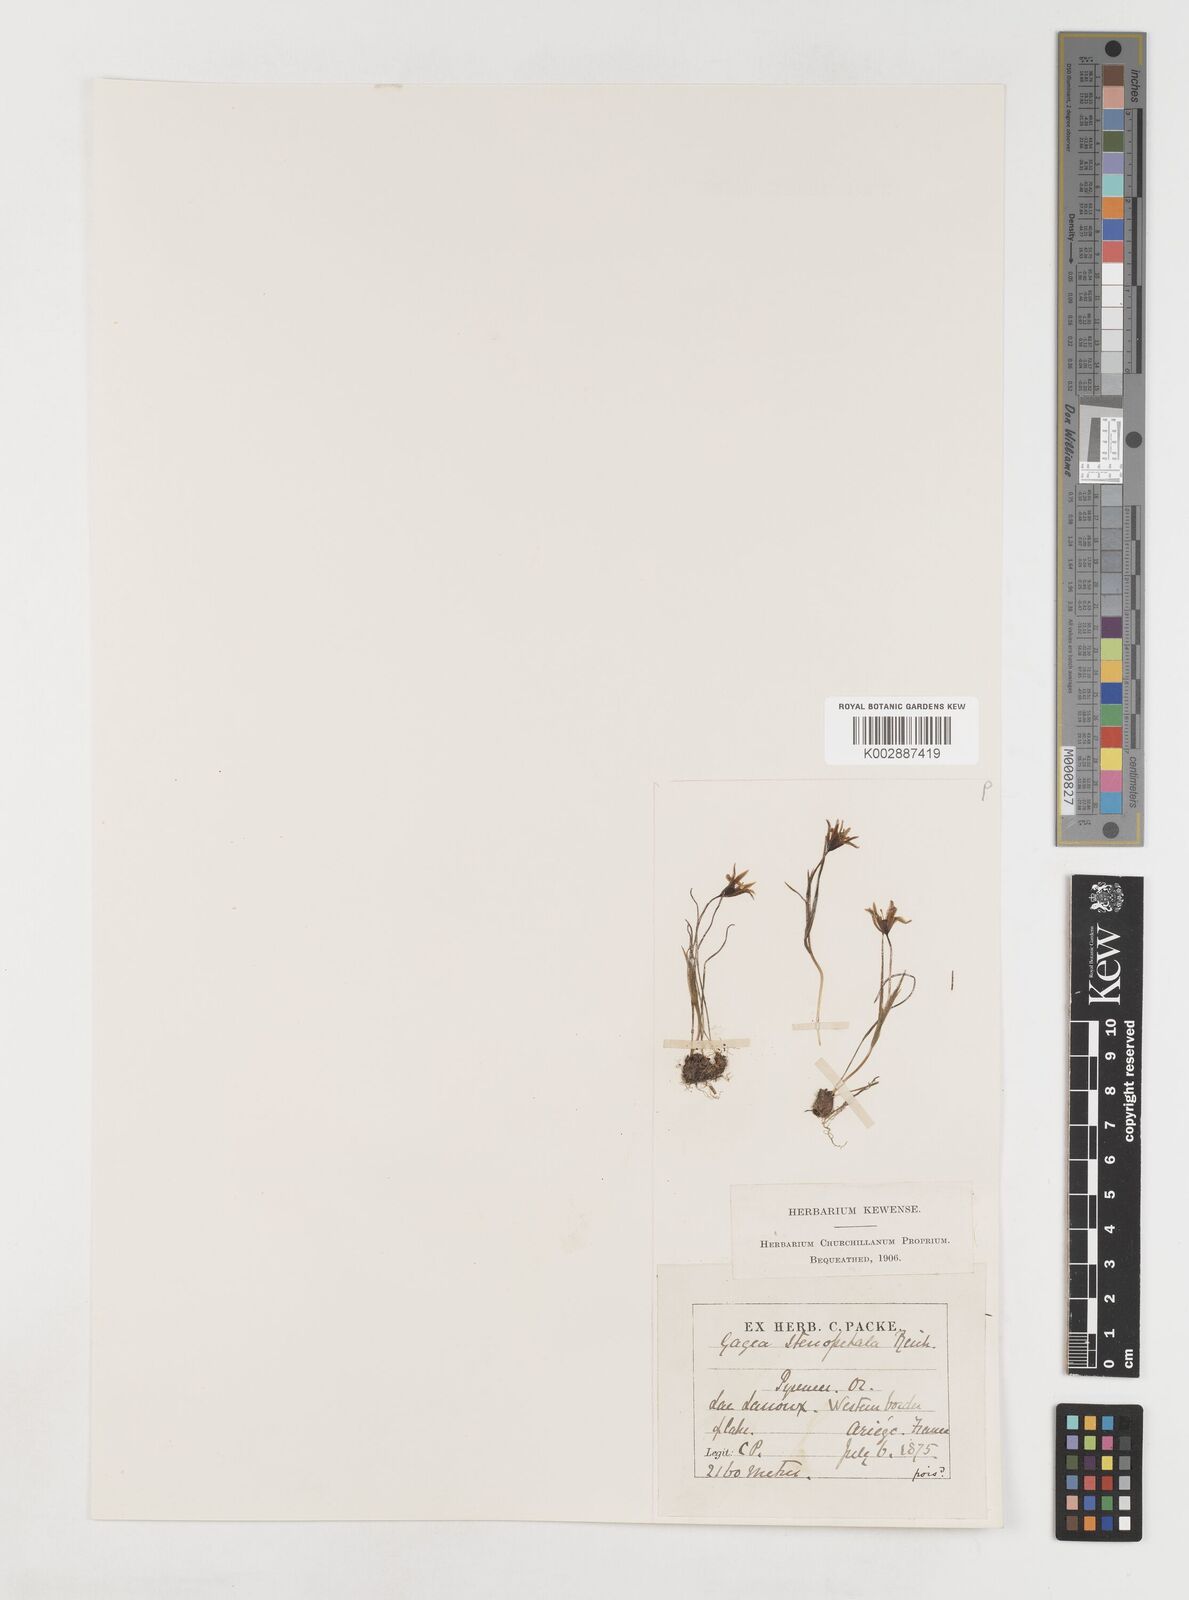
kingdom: Plantae
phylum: Tracheophyta
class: Liliopsida
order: Liliales
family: Liliaceae
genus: Gagea
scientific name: Gagea pratensis
